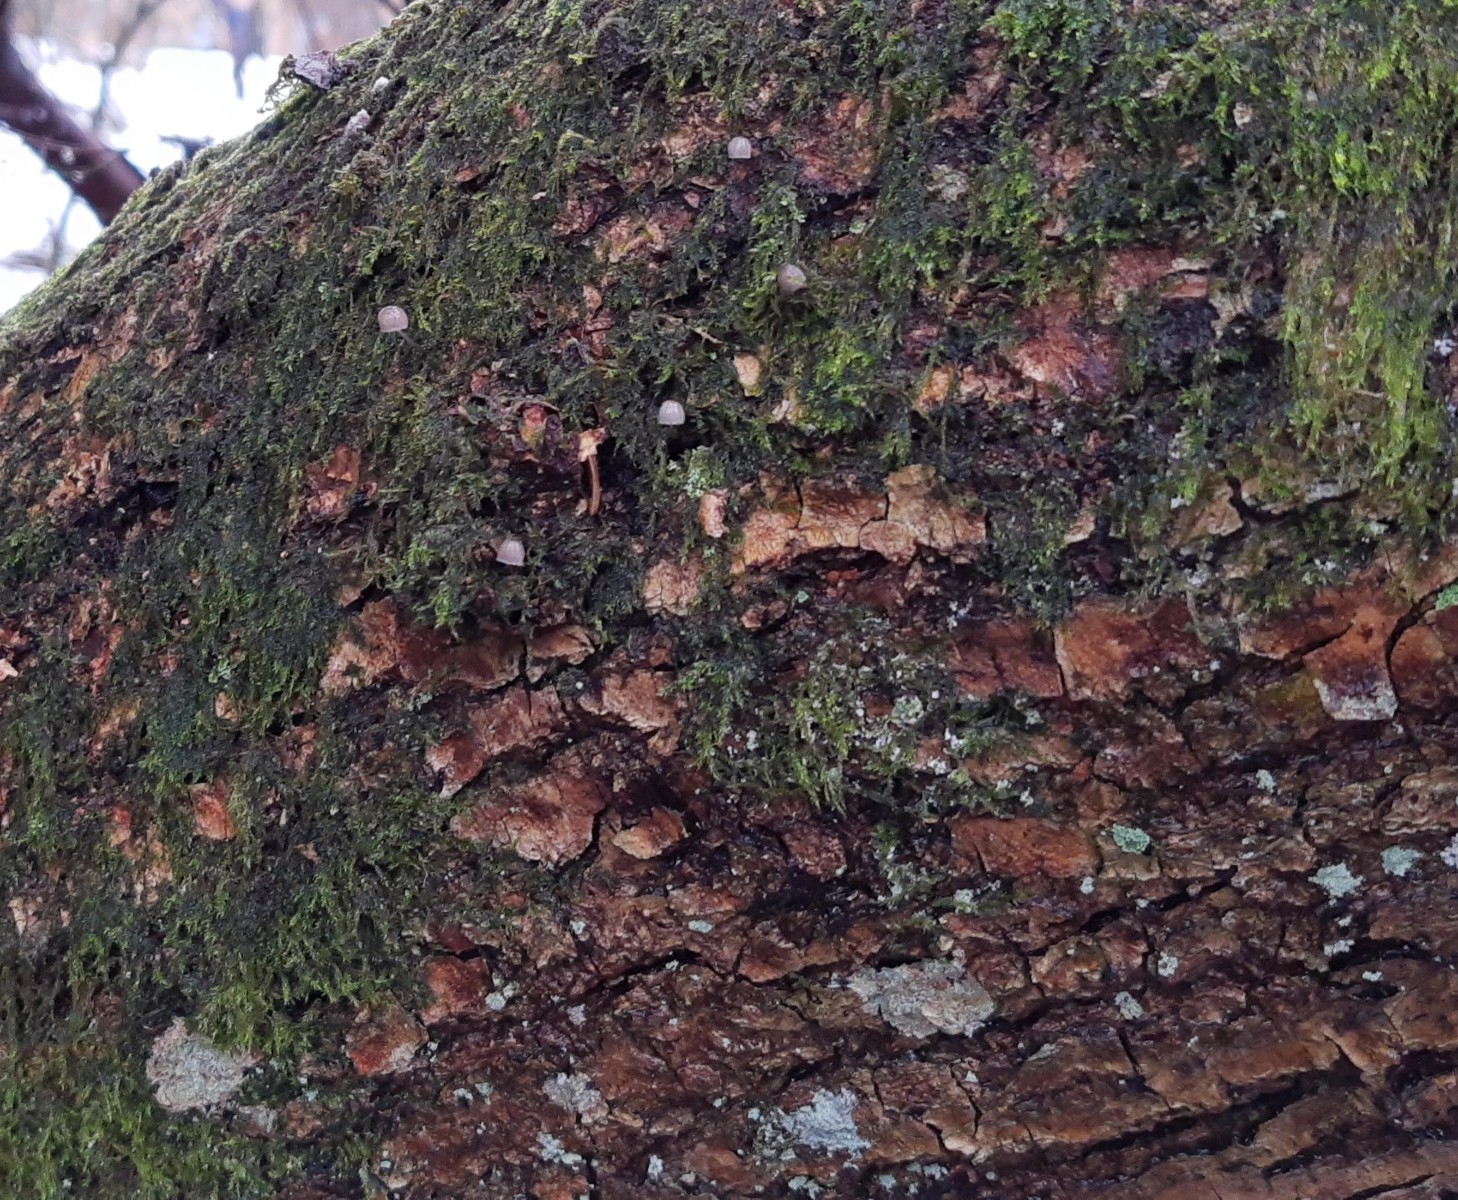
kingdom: Fungi
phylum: Basidiomycota
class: Agaricomycetes
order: Agaricales
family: Mycenaceae
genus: Mycena
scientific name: Mycena pseudocorticola
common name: gråblå bark-huesvamp
